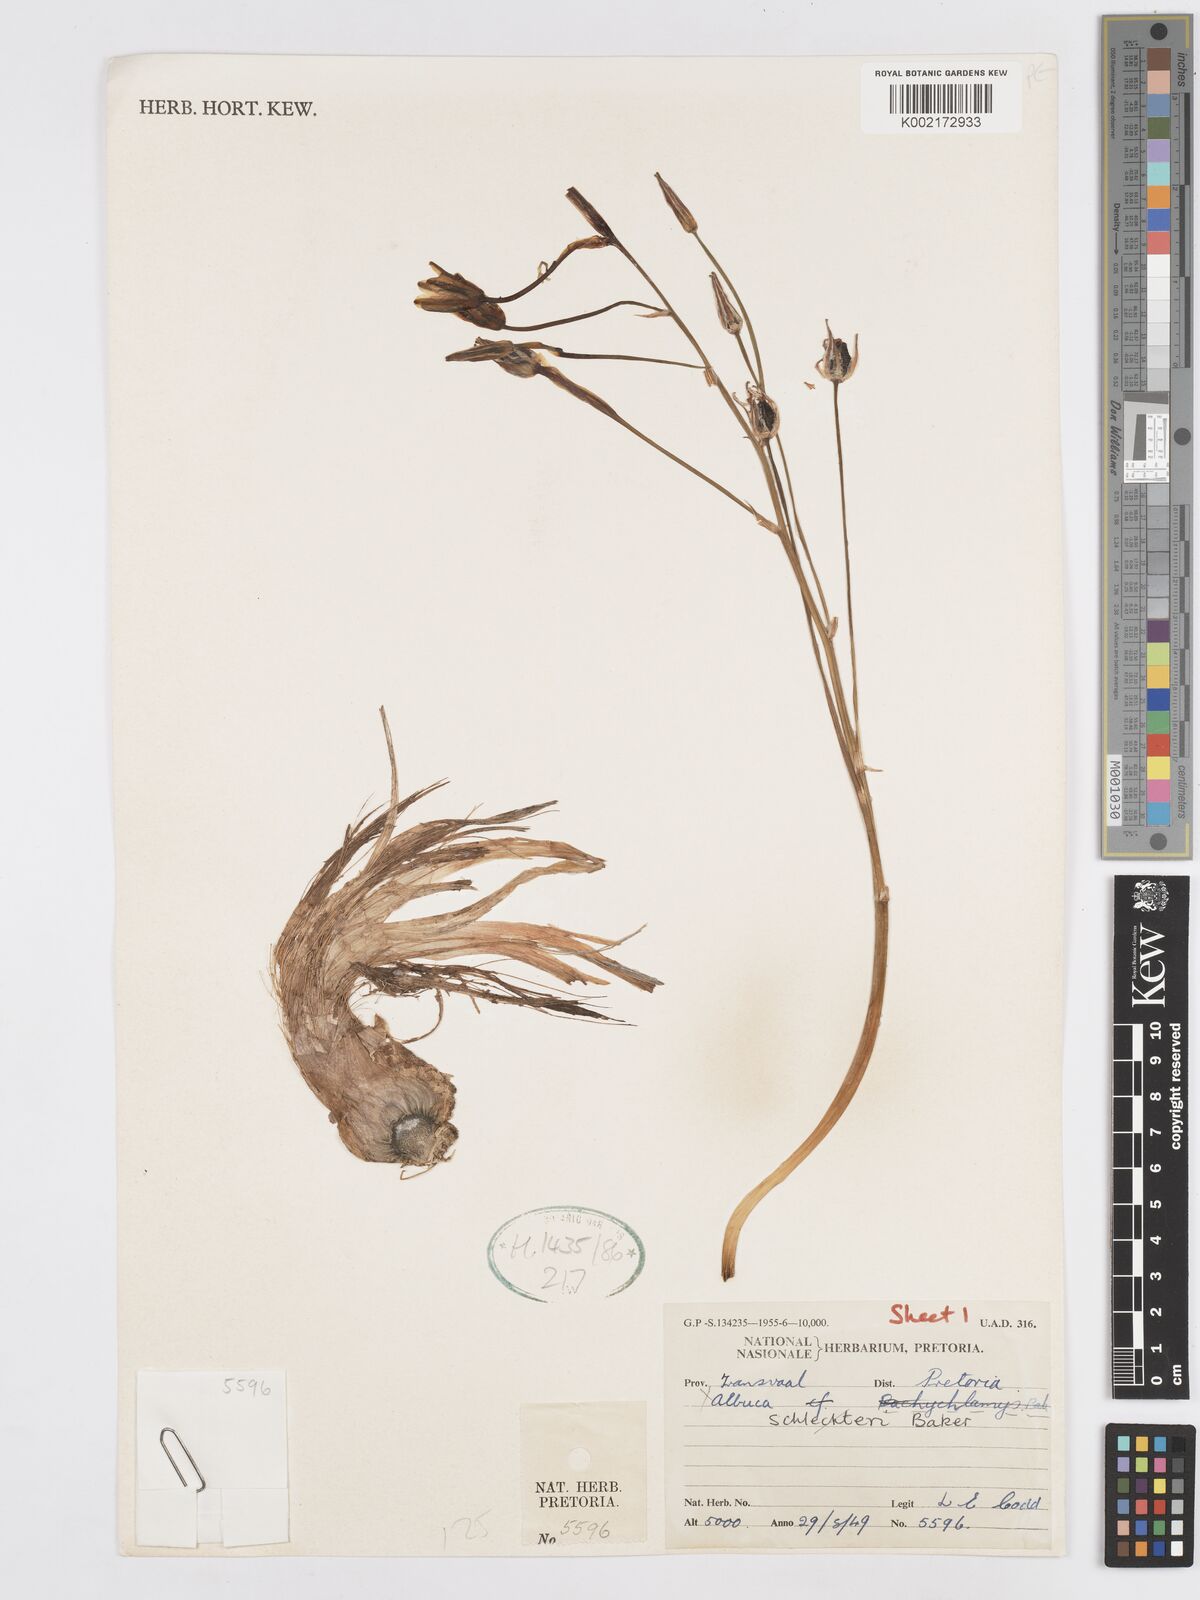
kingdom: Plantae
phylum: Tracheophyta
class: Liliopsida
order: Asparagales
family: Asparagaceae
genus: Albuca
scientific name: Albuca setosa
